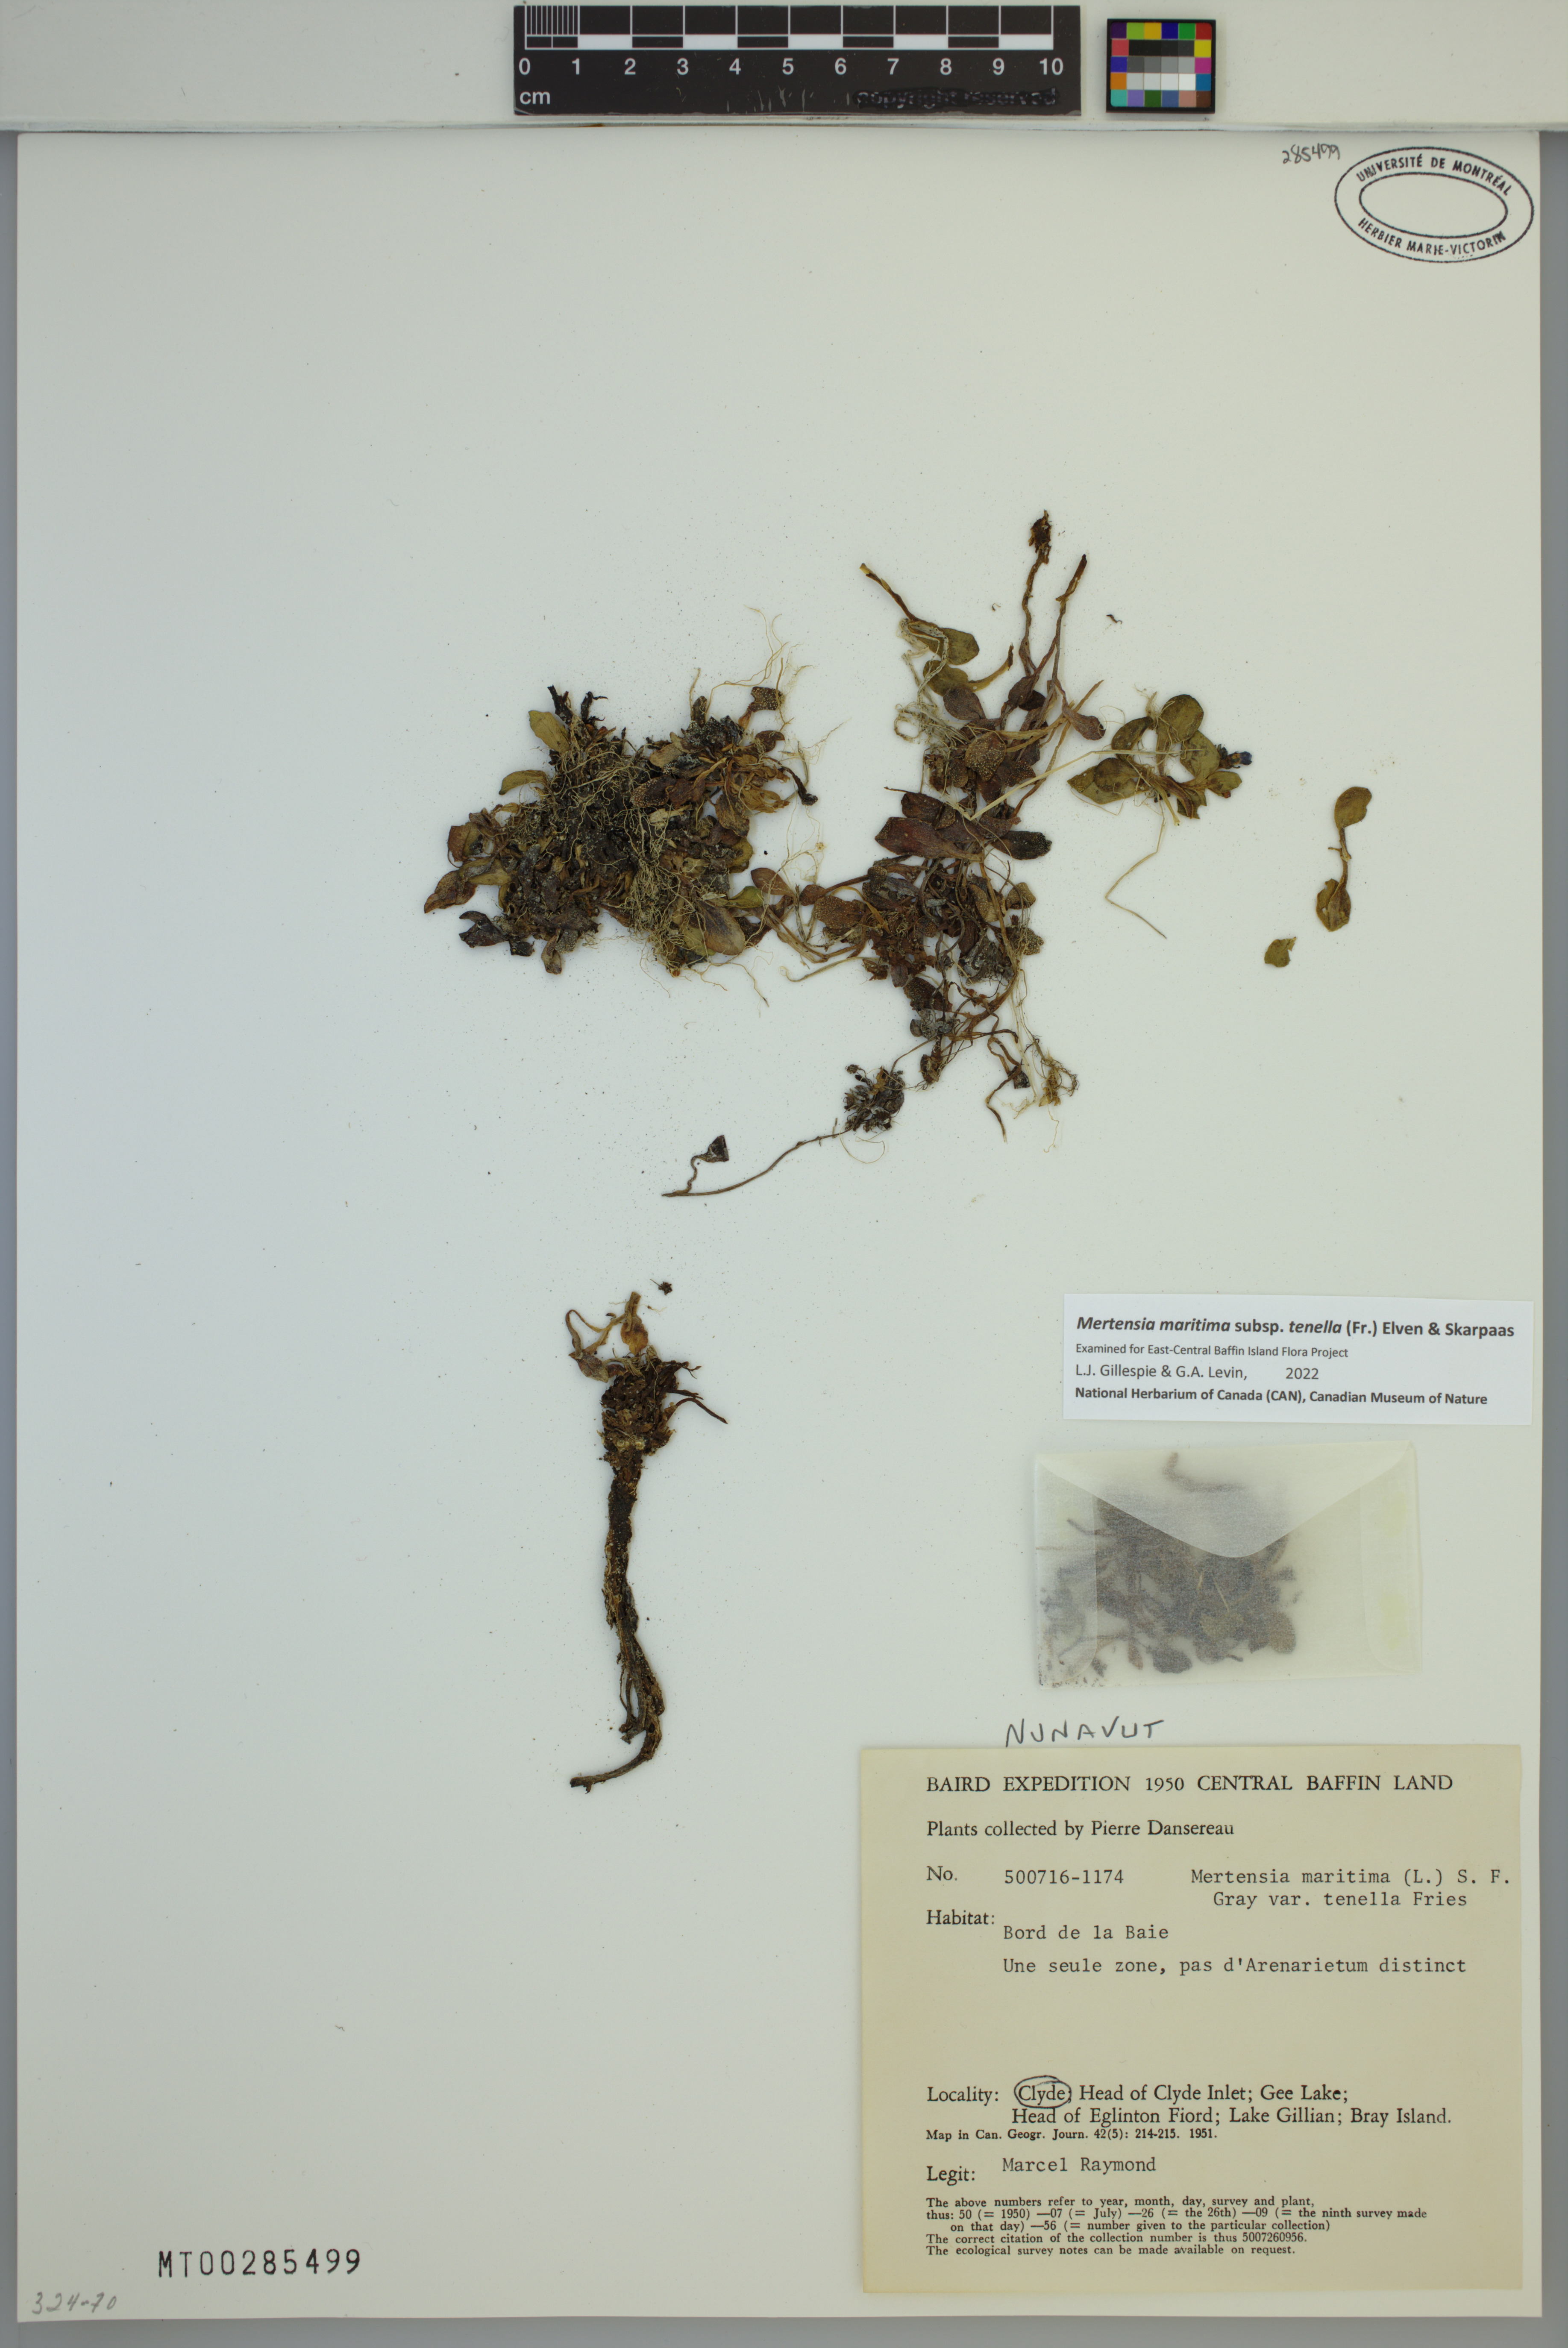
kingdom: Plantae
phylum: Tracheophyta
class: Magnoliopsida
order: Boraginales
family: Boraginaceae
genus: Mertensia
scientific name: Mertensia maritima
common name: Oysterplant
